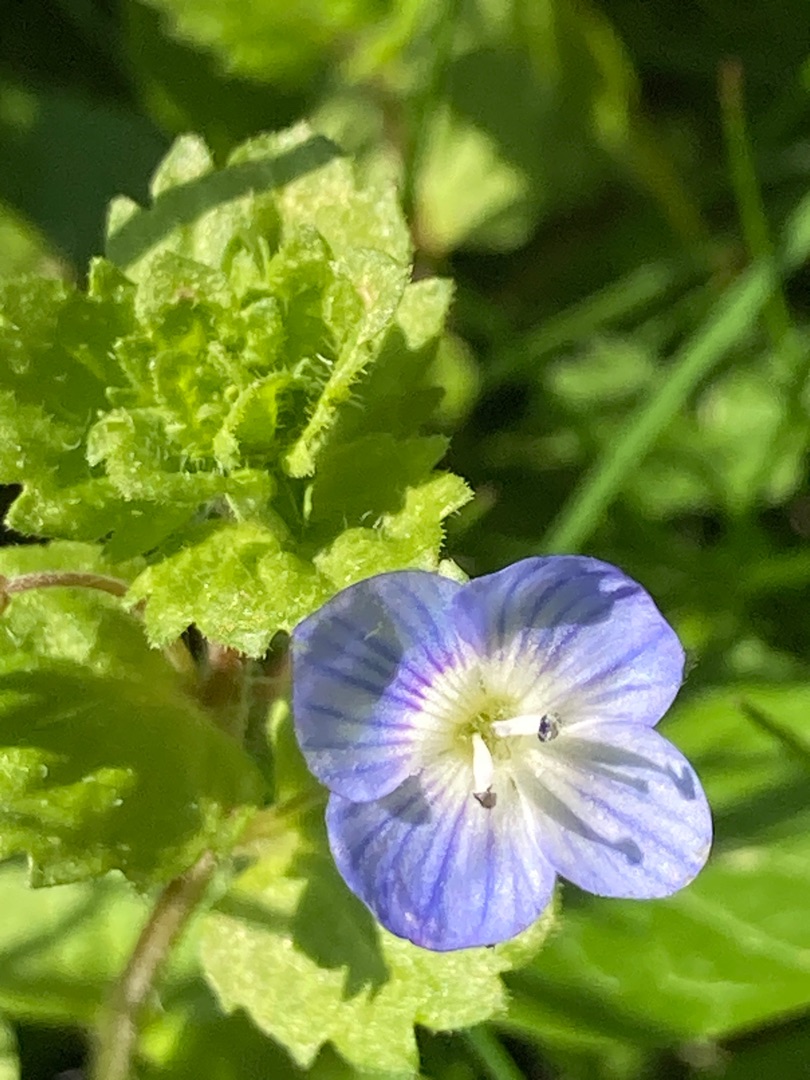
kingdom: Plantae
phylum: Tracheophyta
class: Magnoliopsida
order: Lamiales
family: Plantaginaceae
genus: Veronica
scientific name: Veronica persica
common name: Storkronet ærenpris
